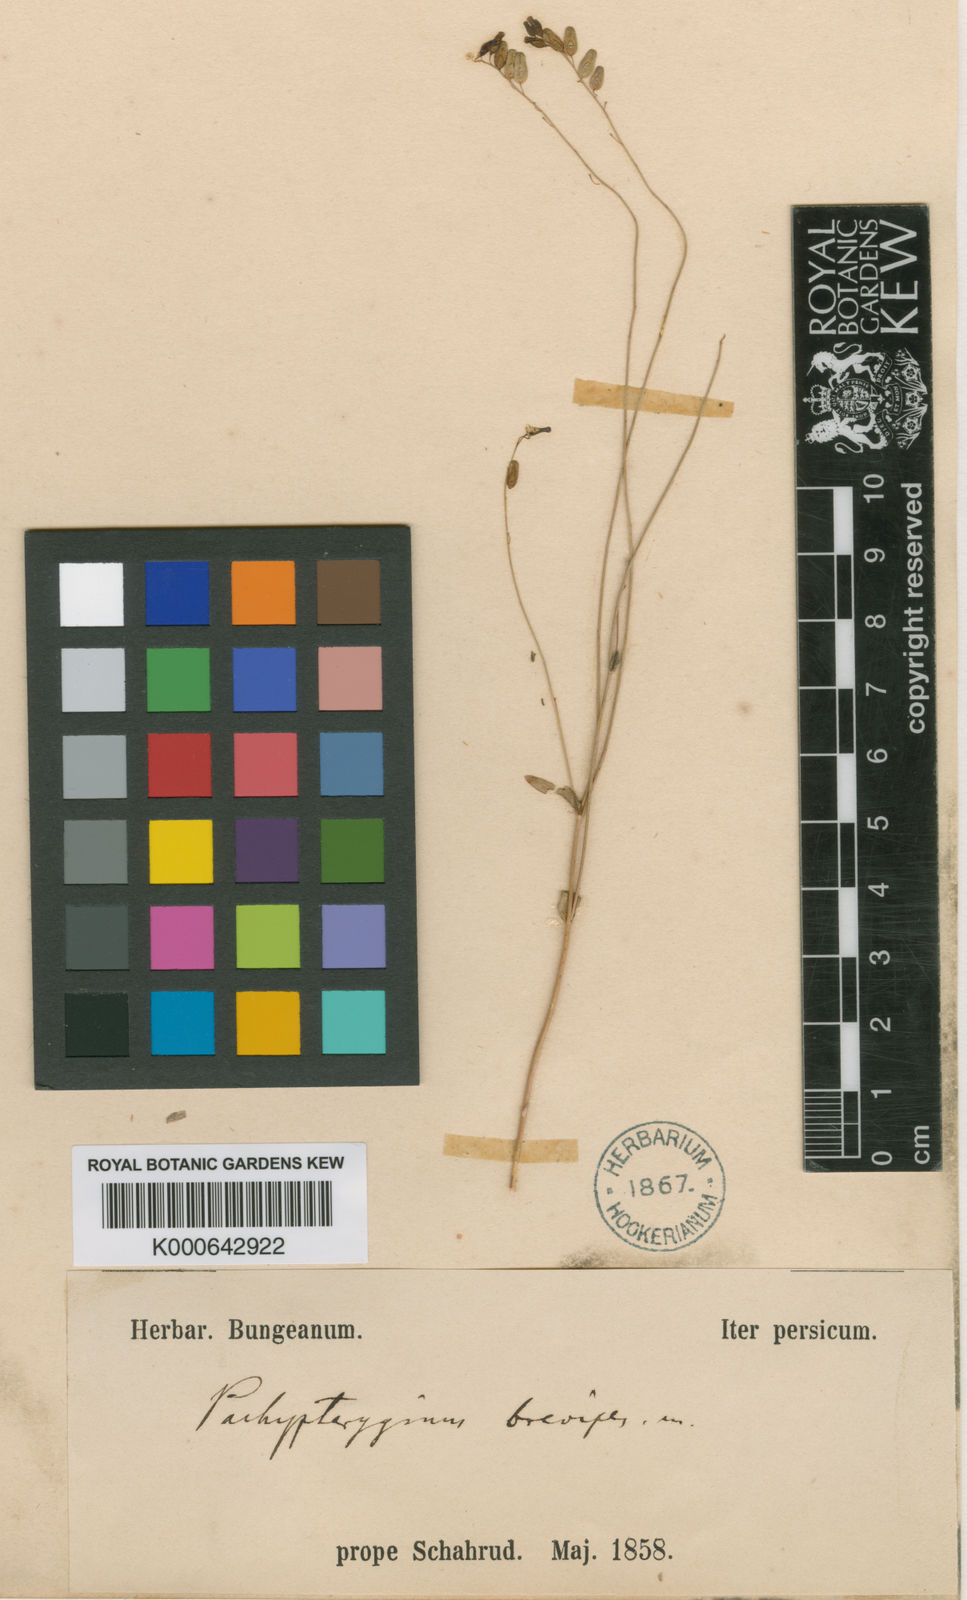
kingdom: Plantae
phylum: Tracheophyta
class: Magnoliopsida
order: Brassicales
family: Brassicaceae
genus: Isatis
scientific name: Isatis brevipes
